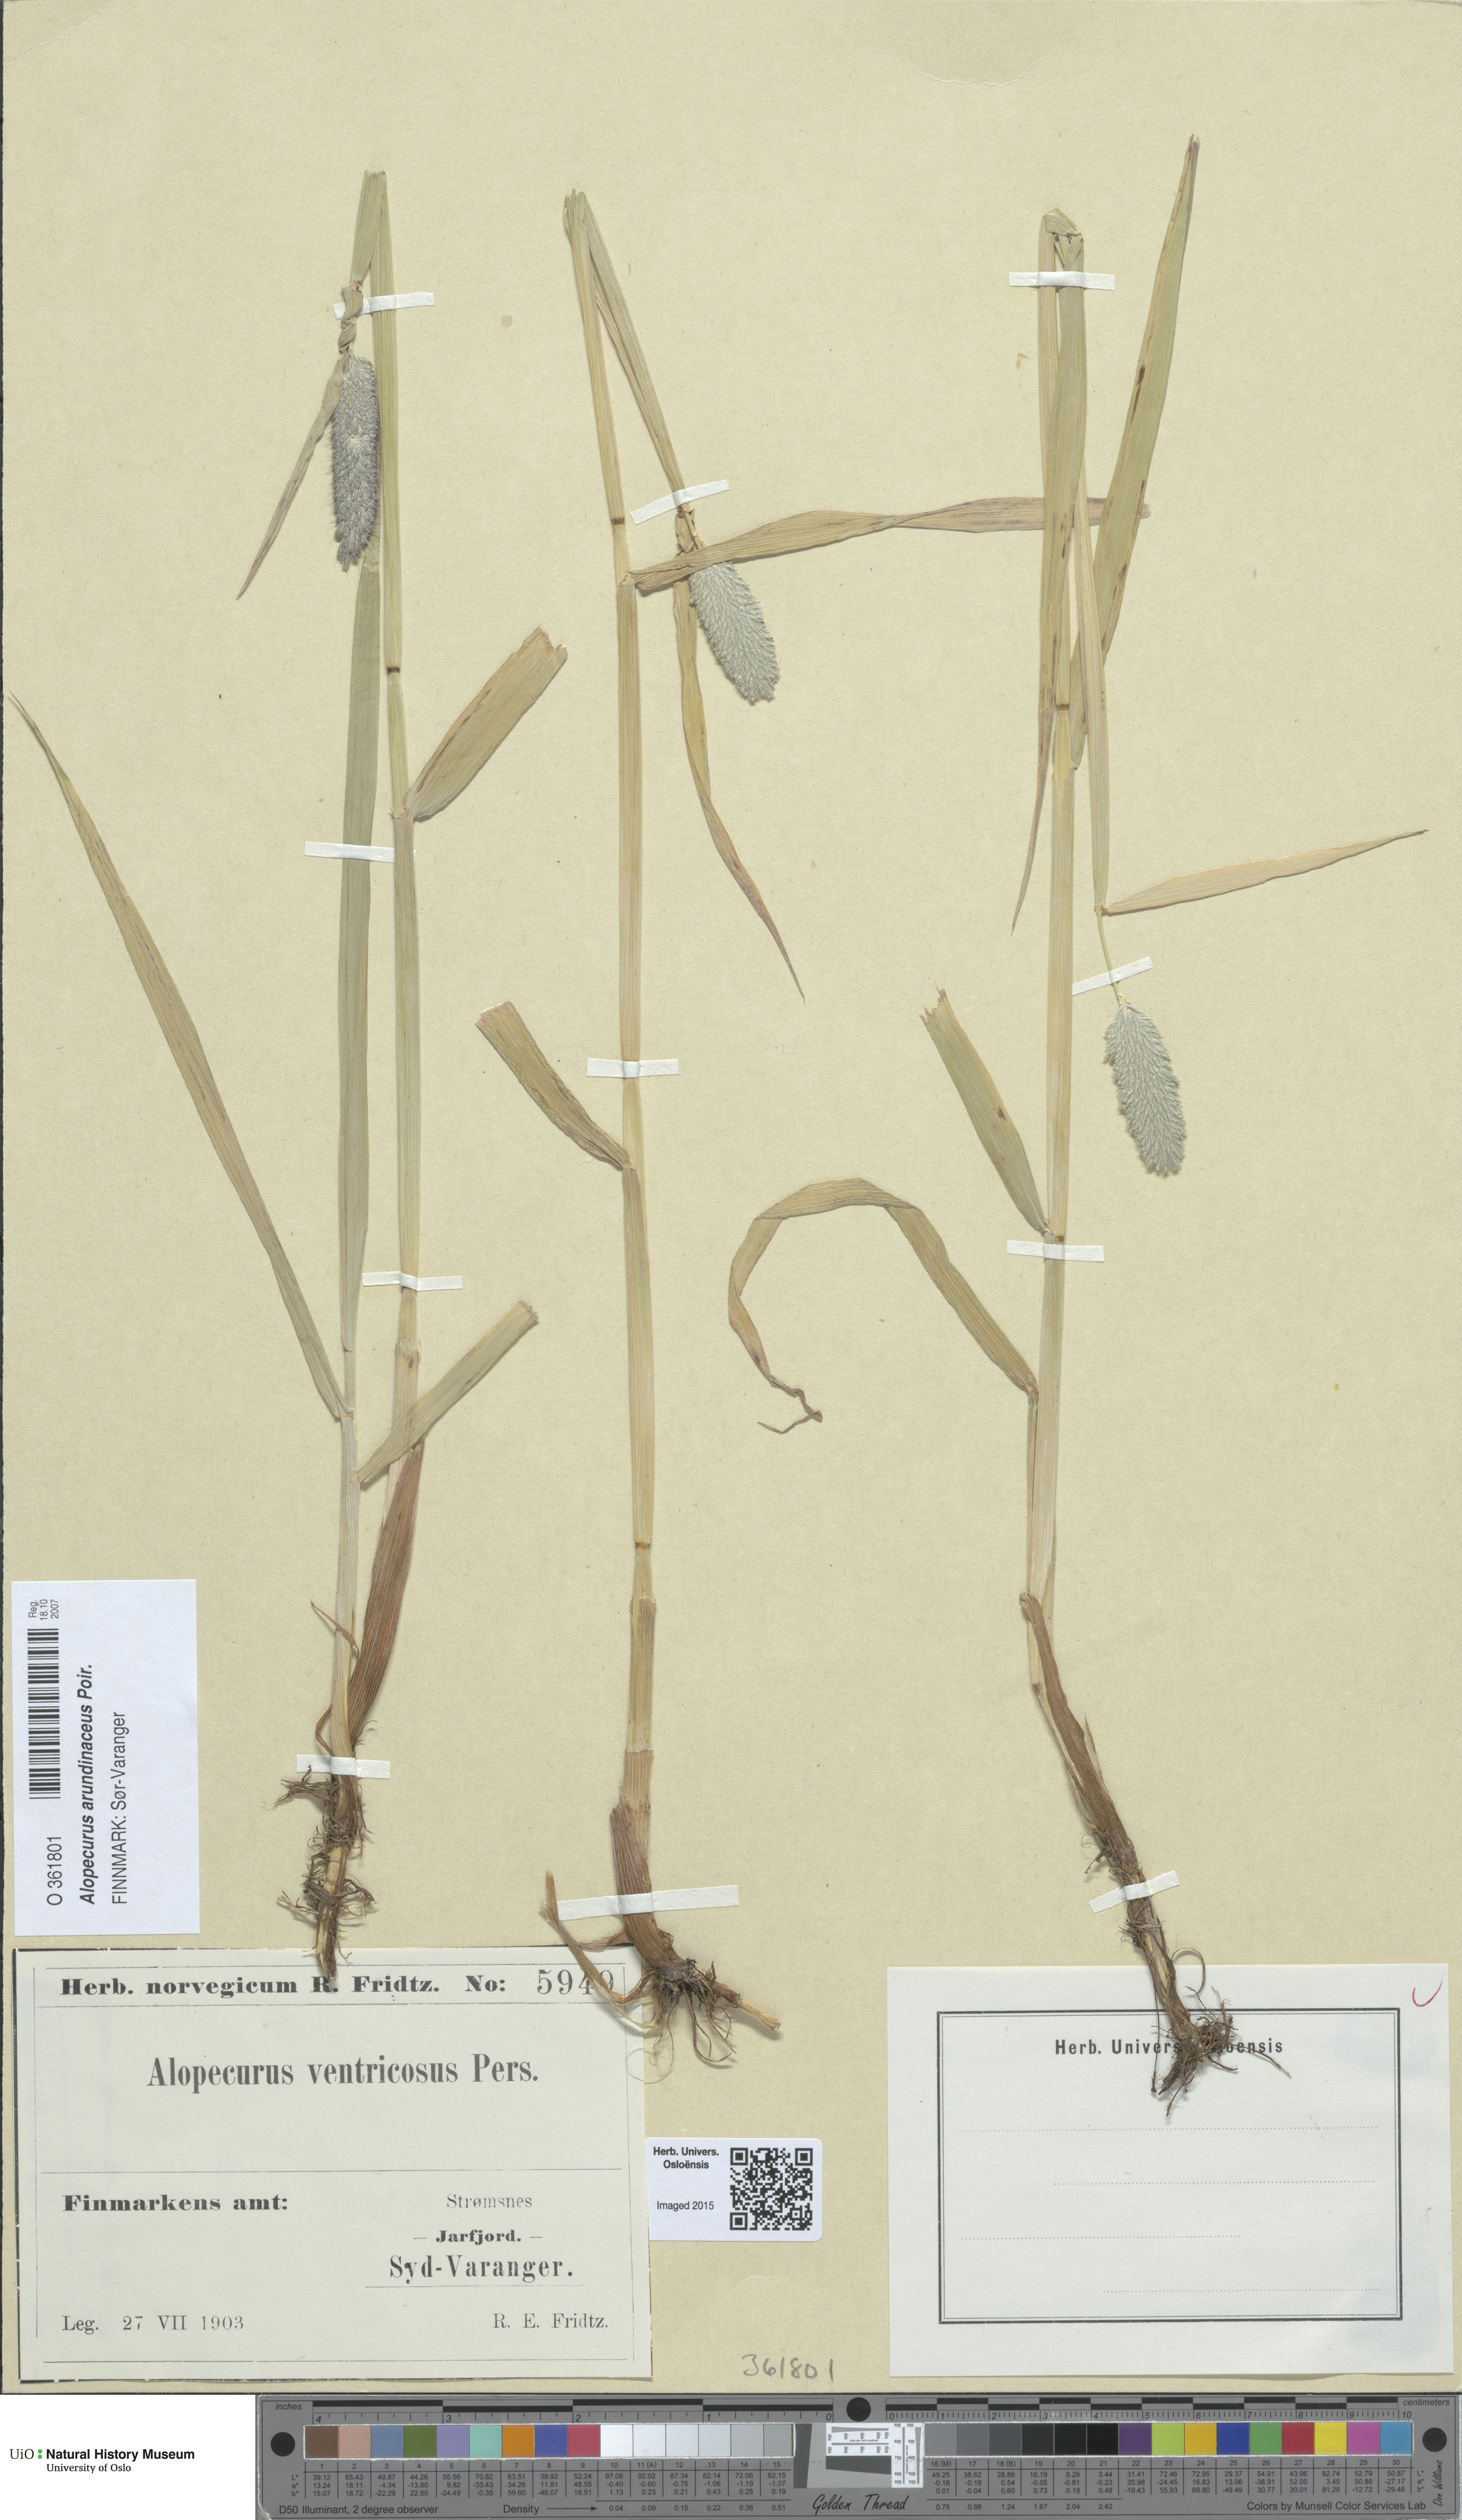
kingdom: Plantae
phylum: Tracheophyta
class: Liliopsida
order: Poales
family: Poaceae
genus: Alopecurus
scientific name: Alopecurus arundinaceus
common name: Creeping meadow foxtail
